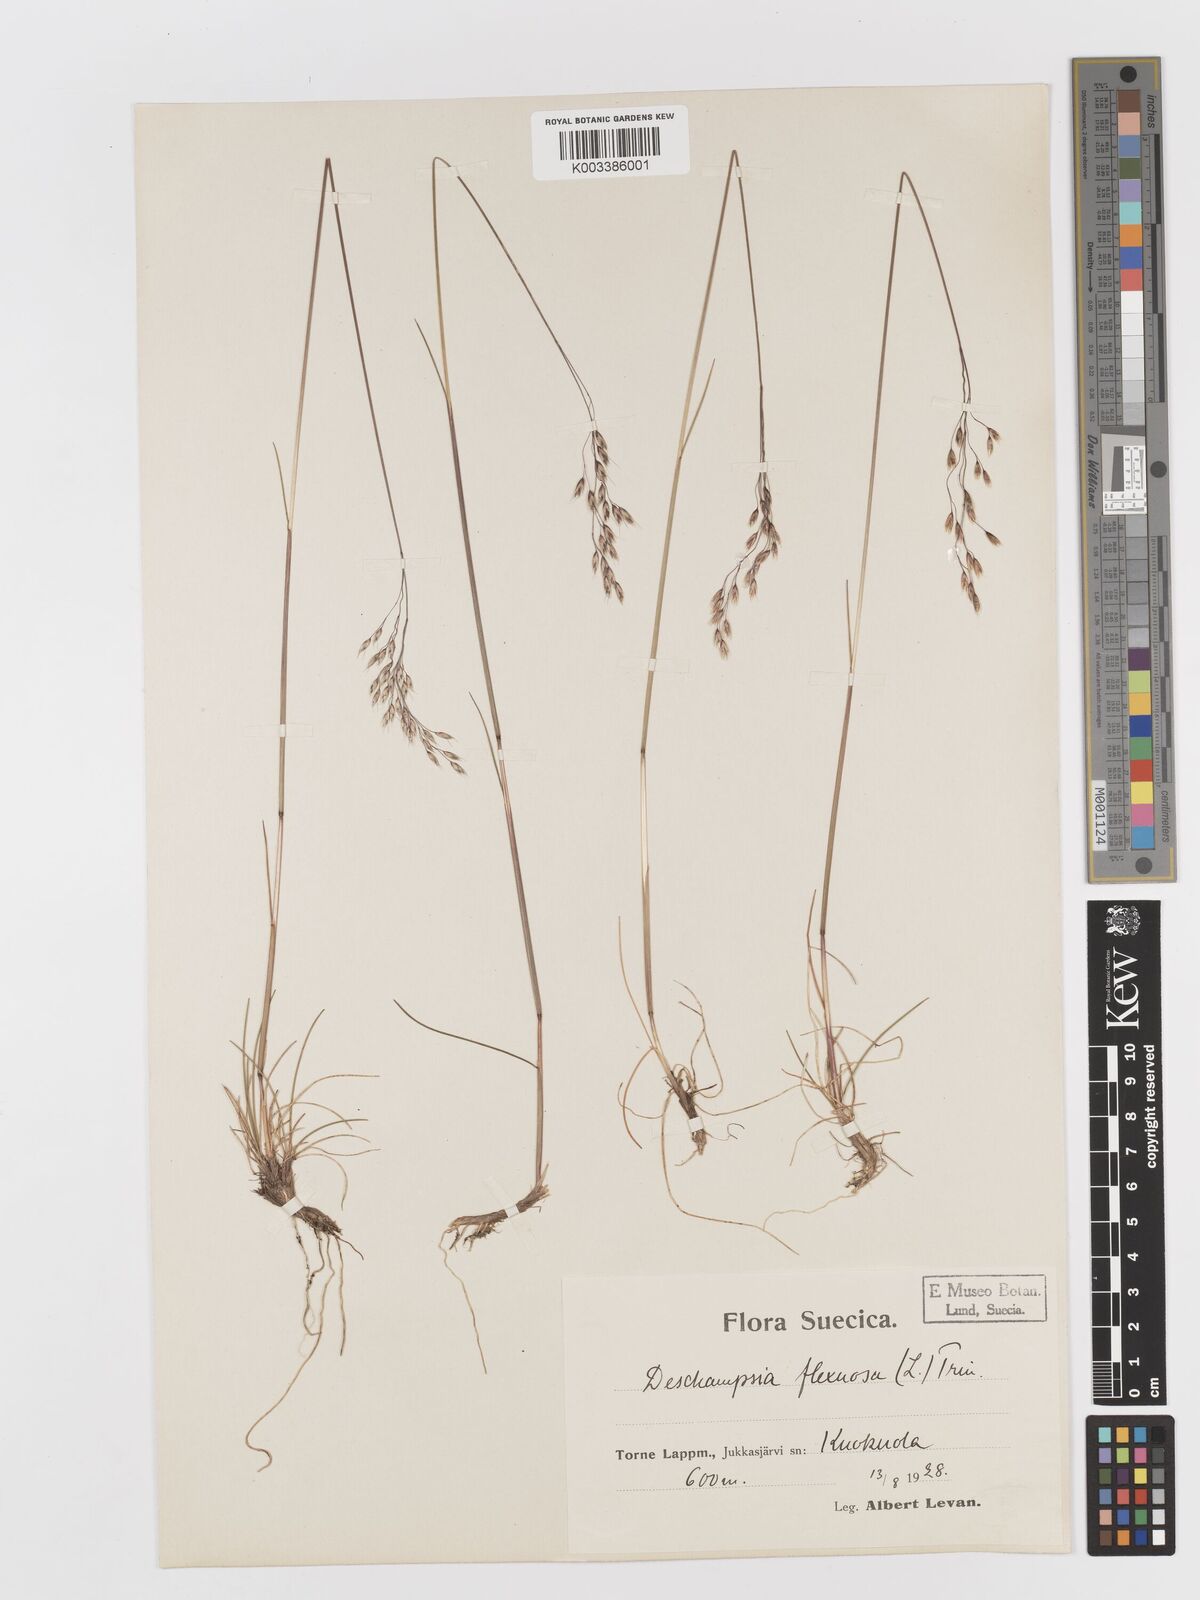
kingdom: Plantae
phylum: Tracheophyta
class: Liliopsida
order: Poales
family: Poaceae
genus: Avenella
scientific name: Avenella flexuosa
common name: Wavy hairgrass
